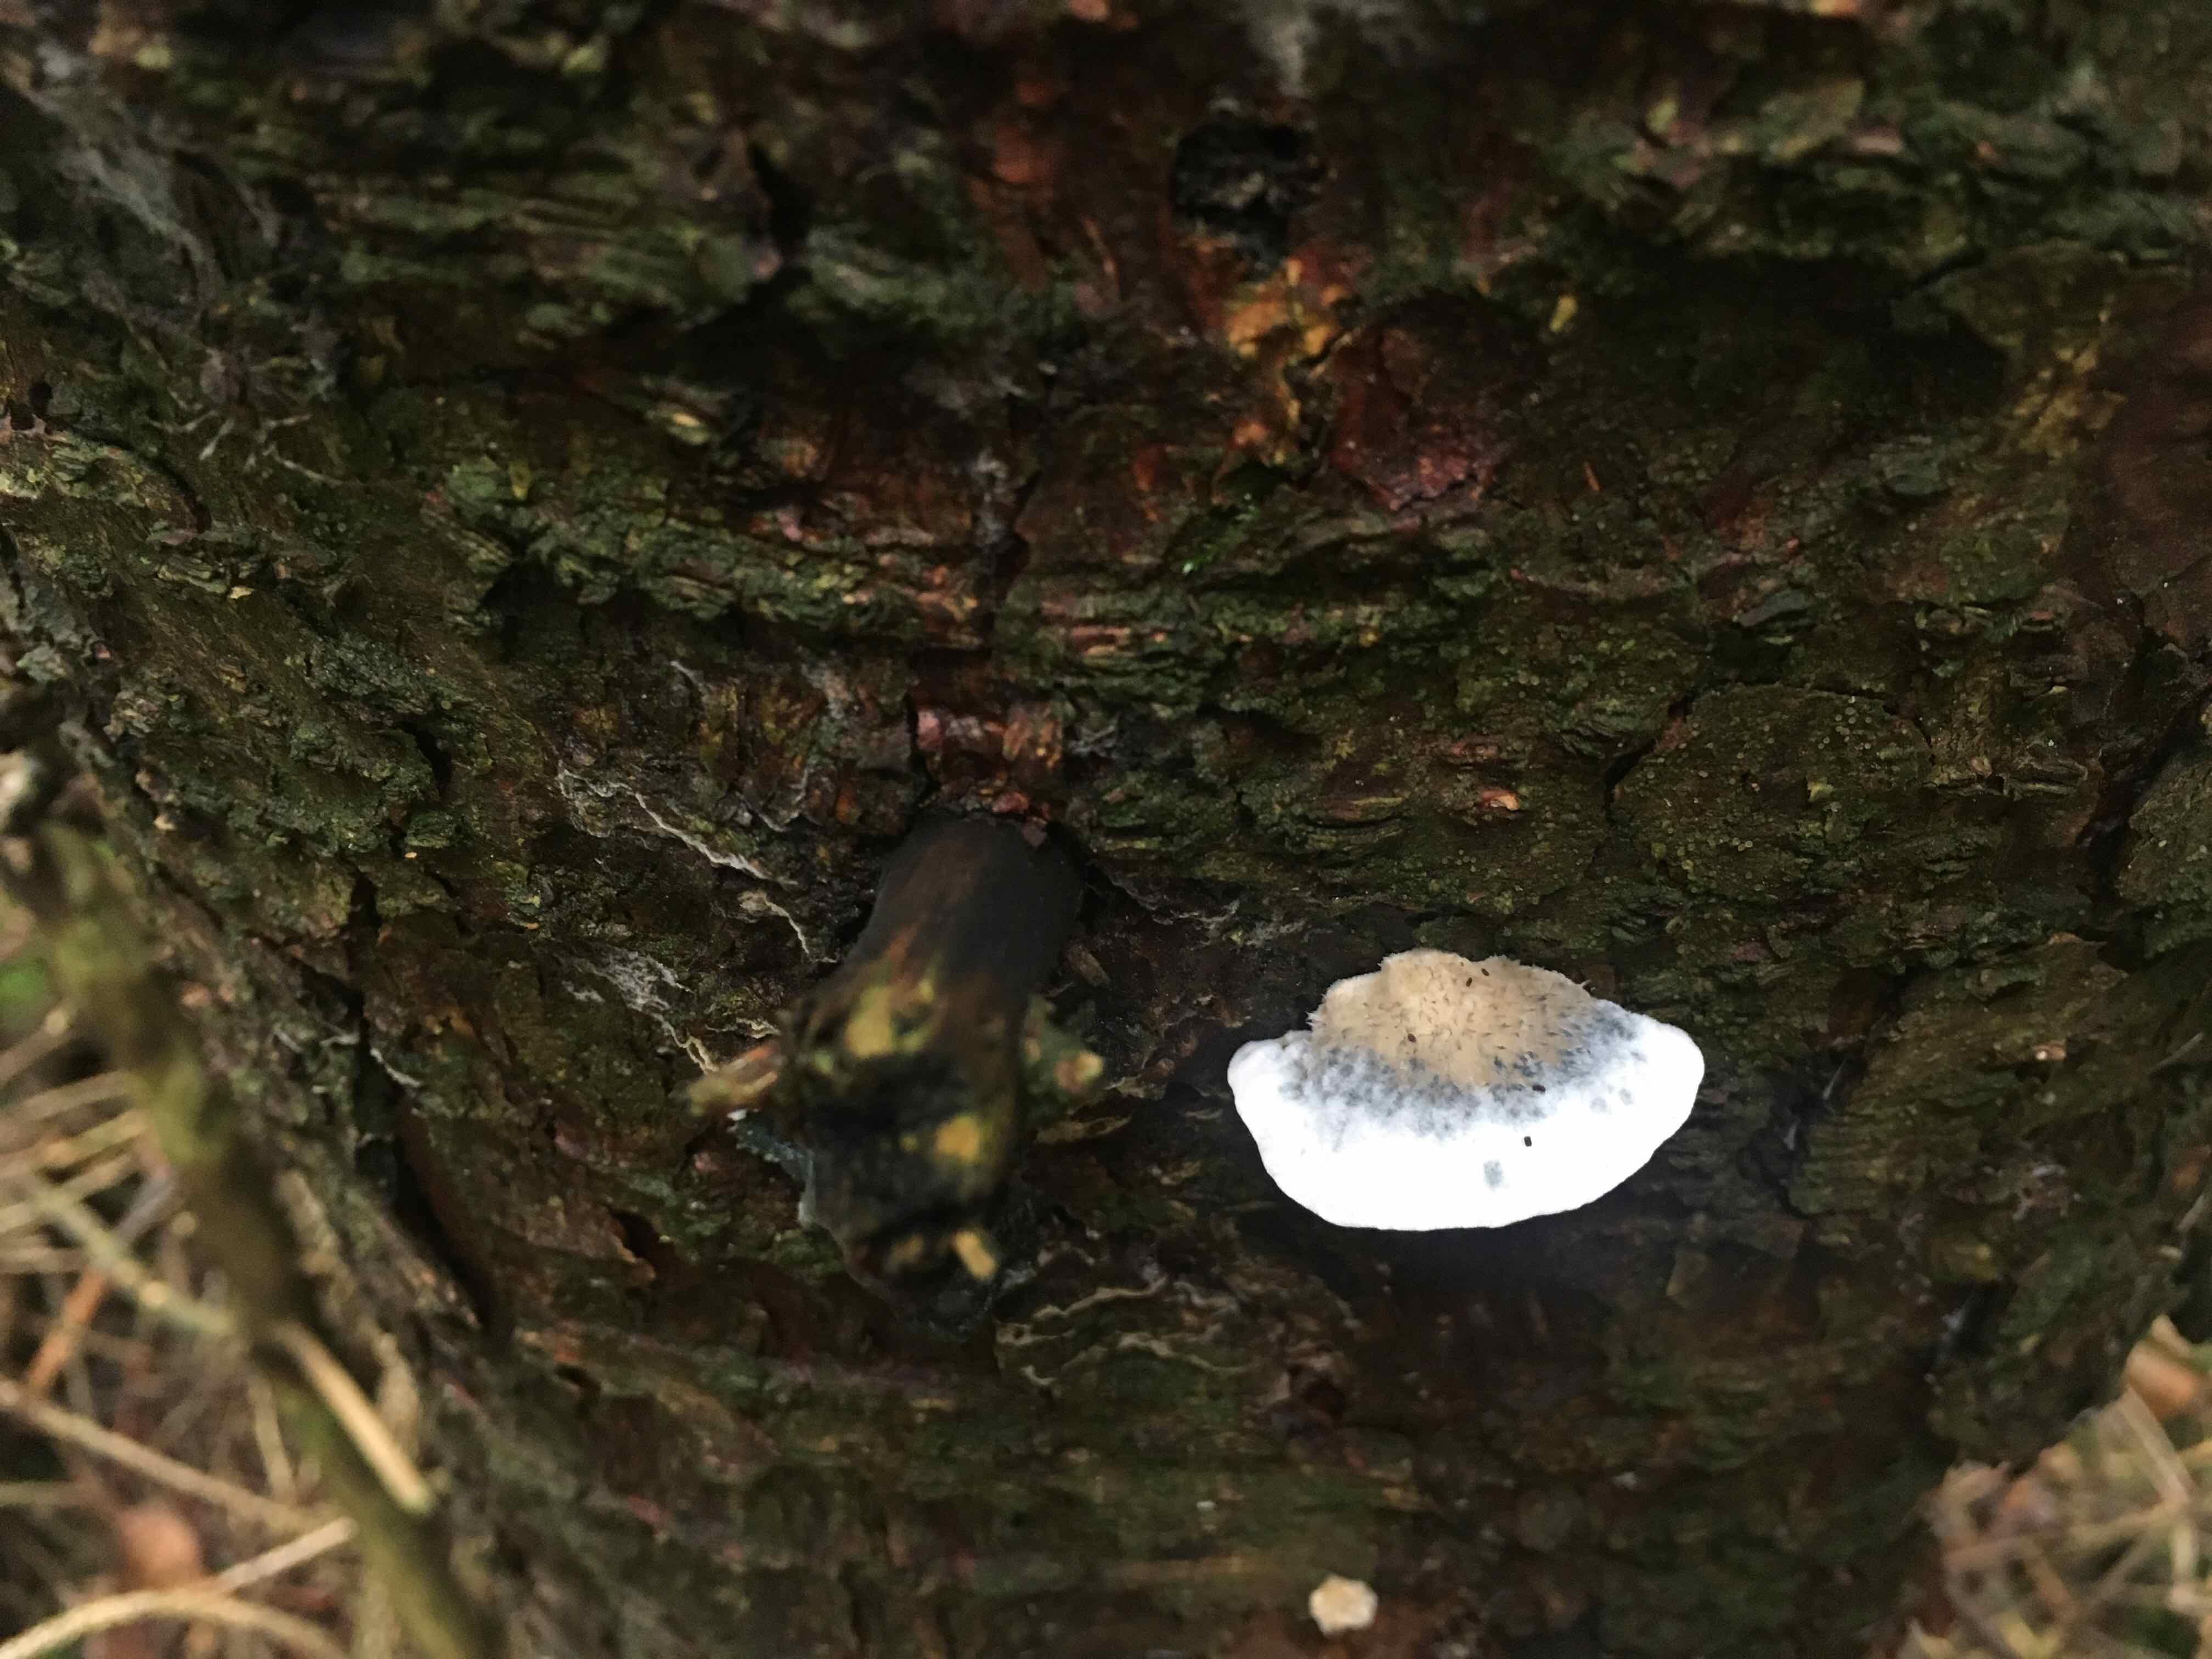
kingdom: Fungi
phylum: Basidiomycota
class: Agaricomycetes
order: Polyporales
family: Polyporaceae
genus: Cyanosporus
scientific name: Cyanosporus
